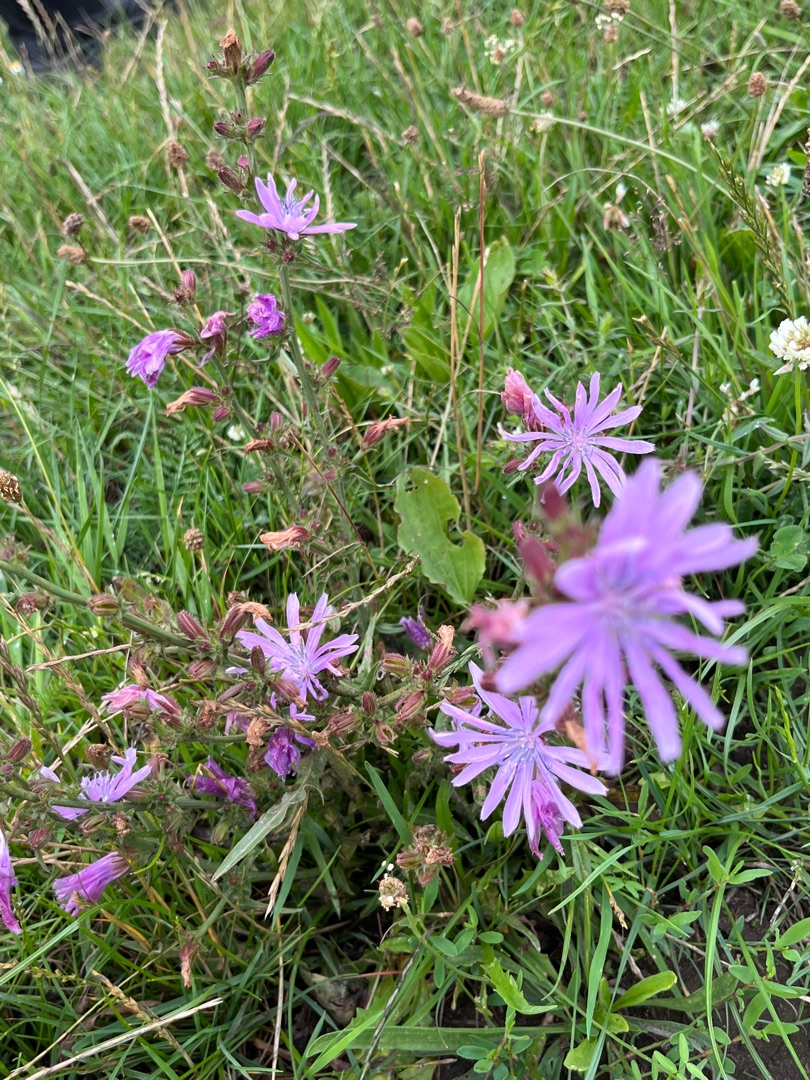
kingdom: Plantae
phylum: Tracheophyta
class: Magnoliopsida
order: Asterales
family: Asteraceae
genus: Cichorium
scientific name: Cichorium intybus
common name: Cikorie
